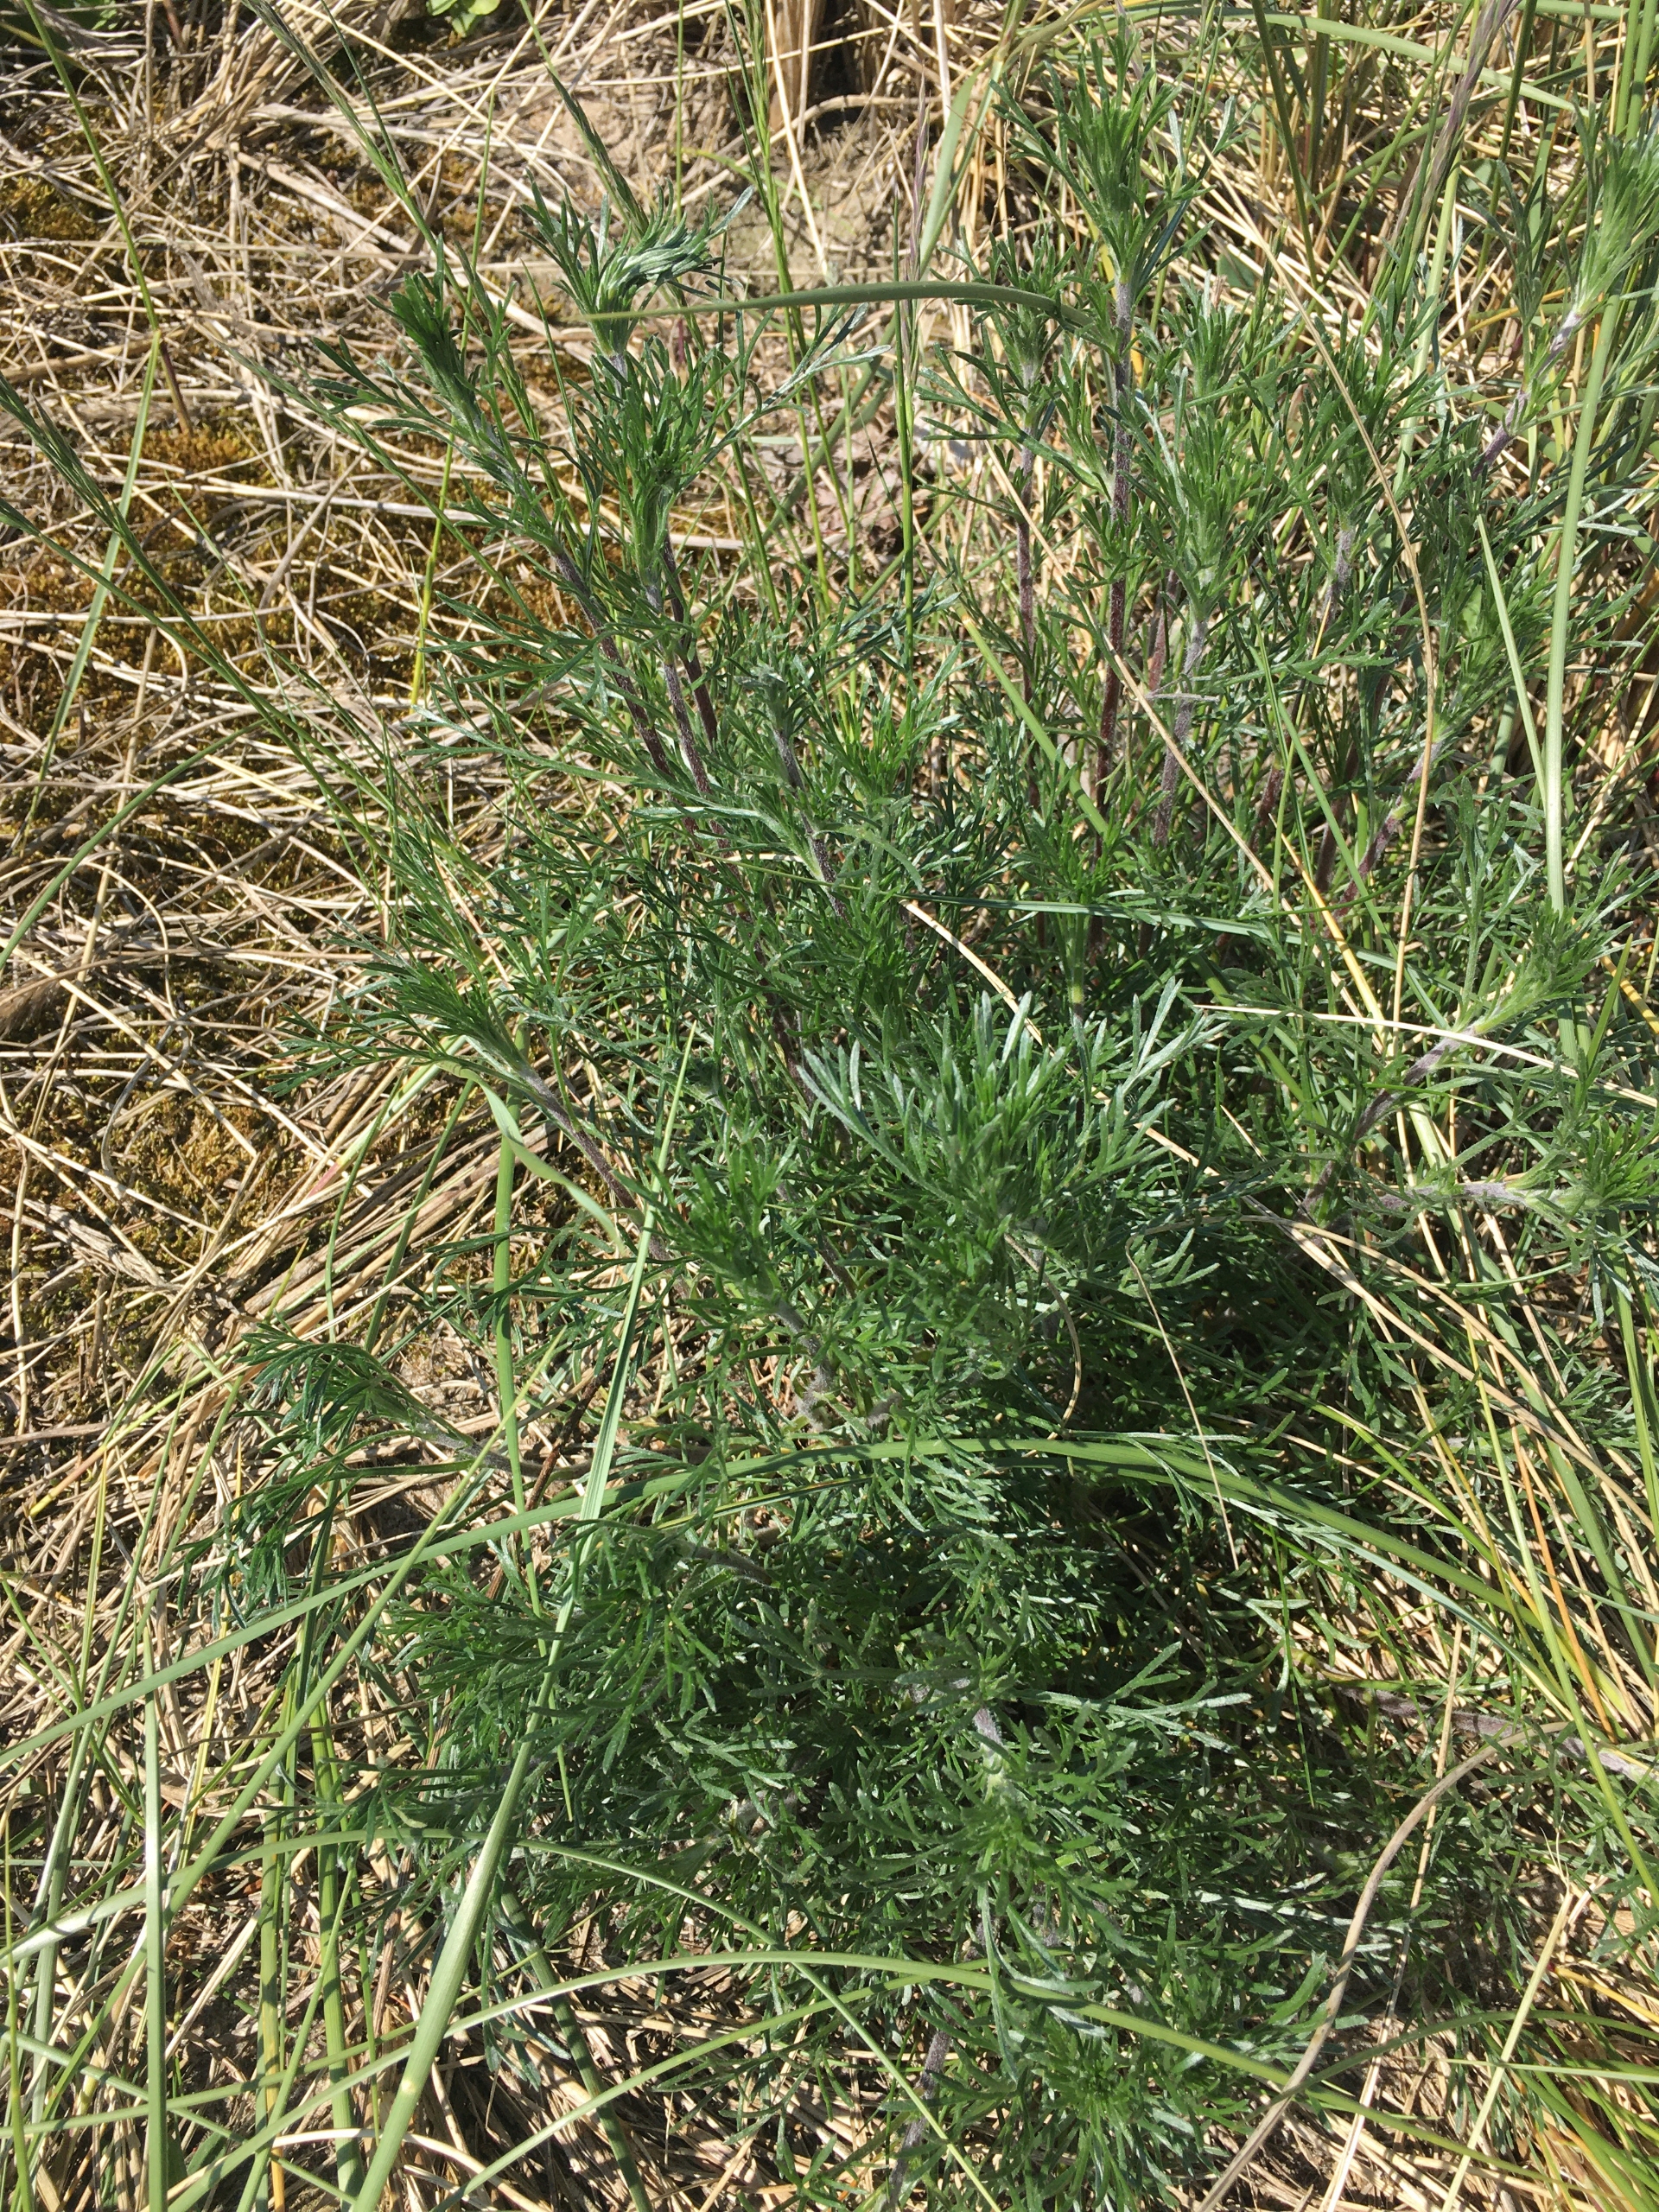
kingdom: Plantae
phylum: Tracheophyta
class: Magnoliopsida
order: Asterales
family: Asteraceae
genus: Artemisia
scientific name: Artemisia campestris
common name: Mark-bynke
